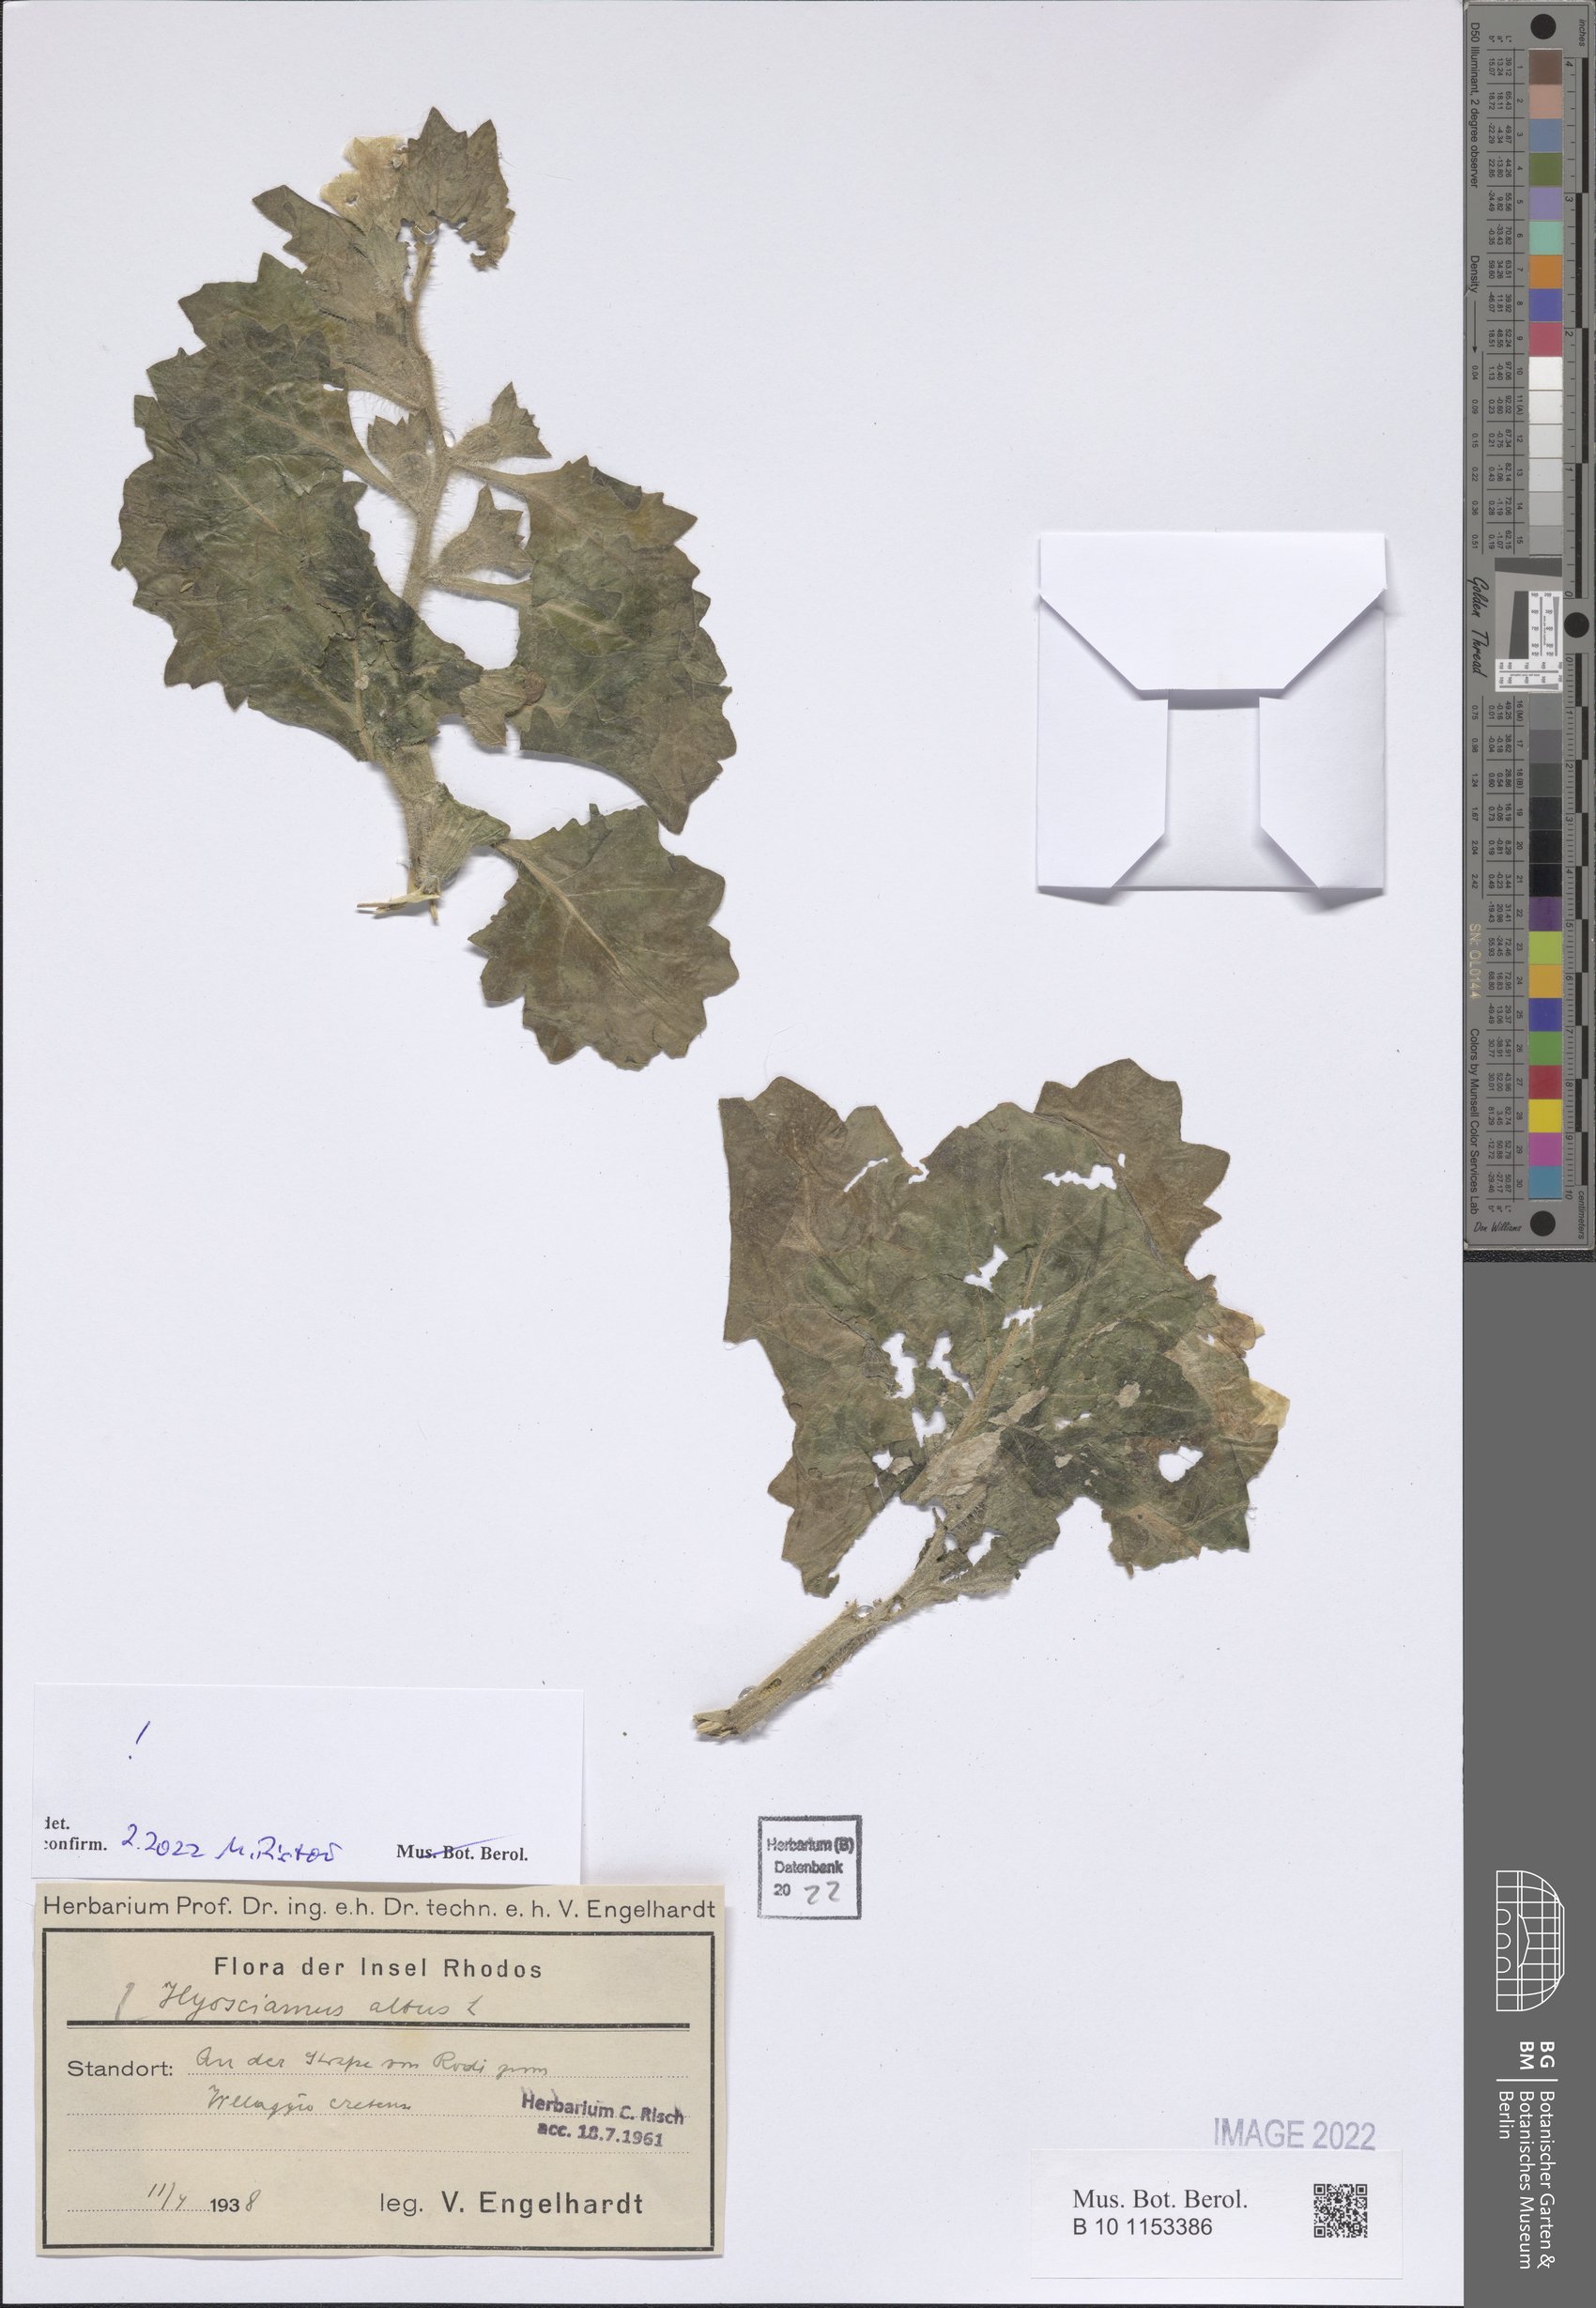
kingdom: Plantae
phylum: Tracheophyta
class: Magnoliopsida
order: Solanales
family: Solanaceae
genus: Hyoscyamus
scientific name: Hyoscyamus aureus
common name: Golden henbane
